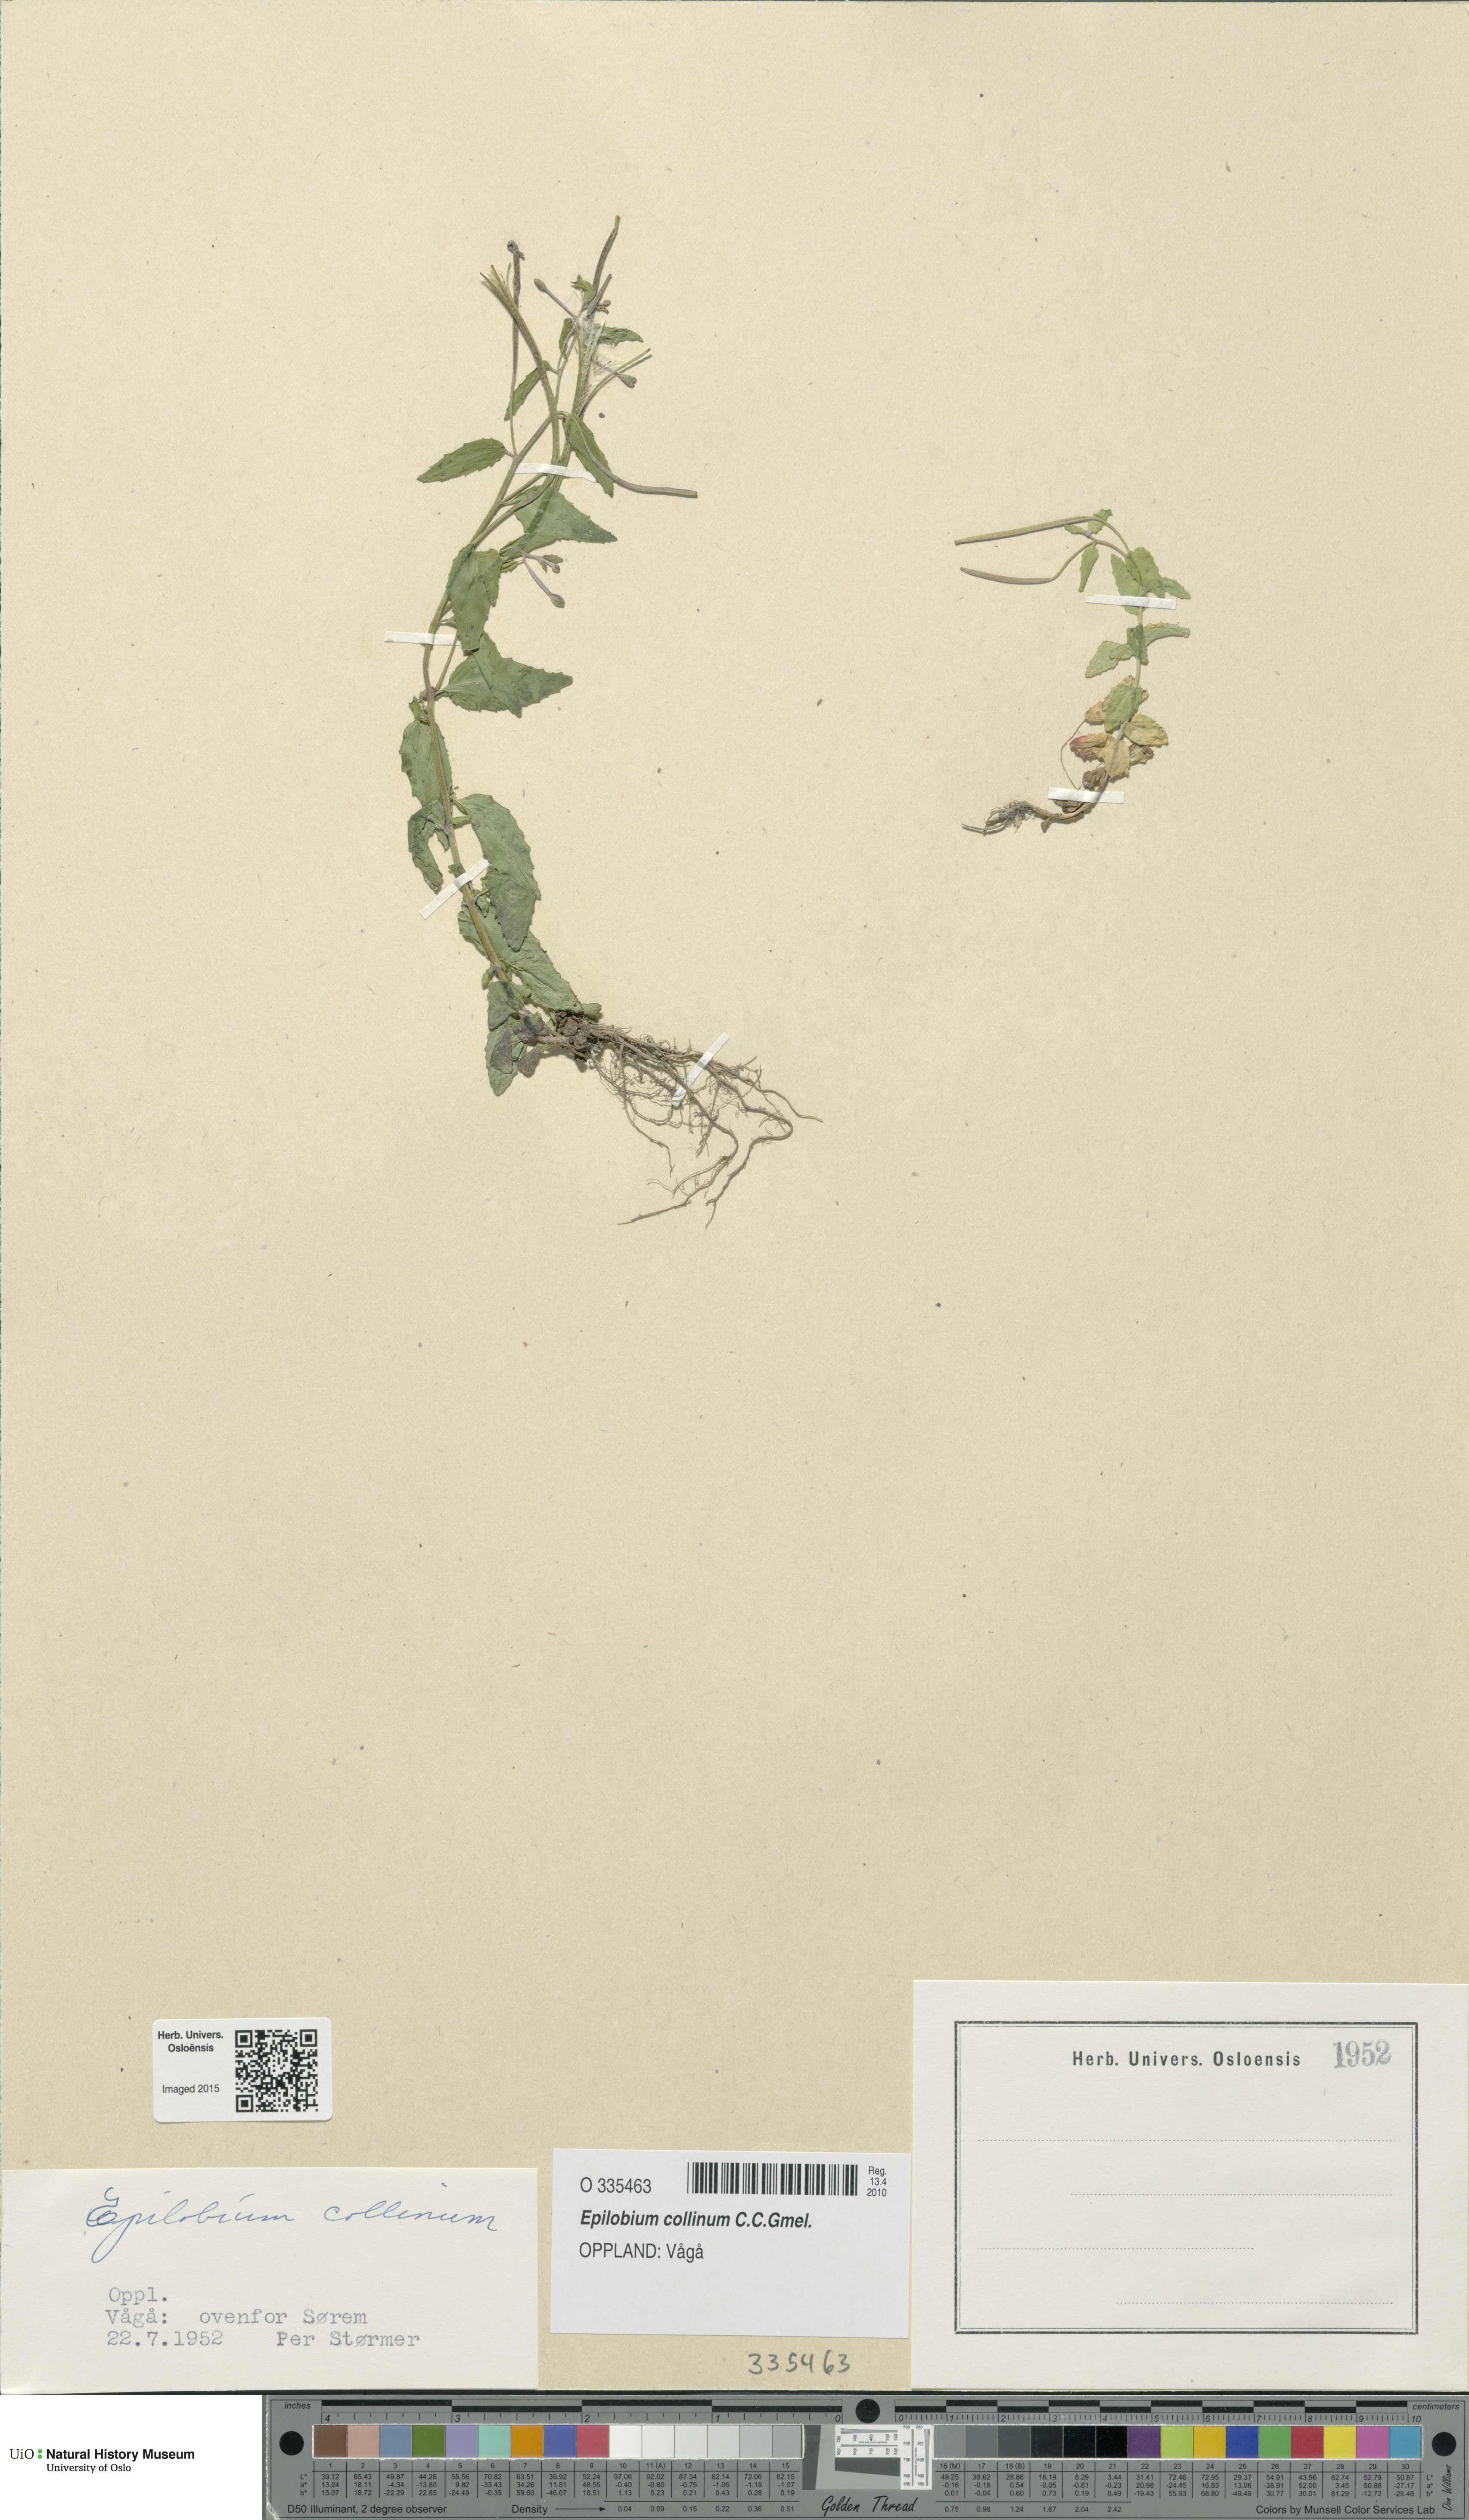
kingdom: Plantae
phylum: Tracheophyta
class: Magnoliopsida
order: Myrtales
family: Onagraceae
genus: Epilobium
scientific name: Epilobium collinum
